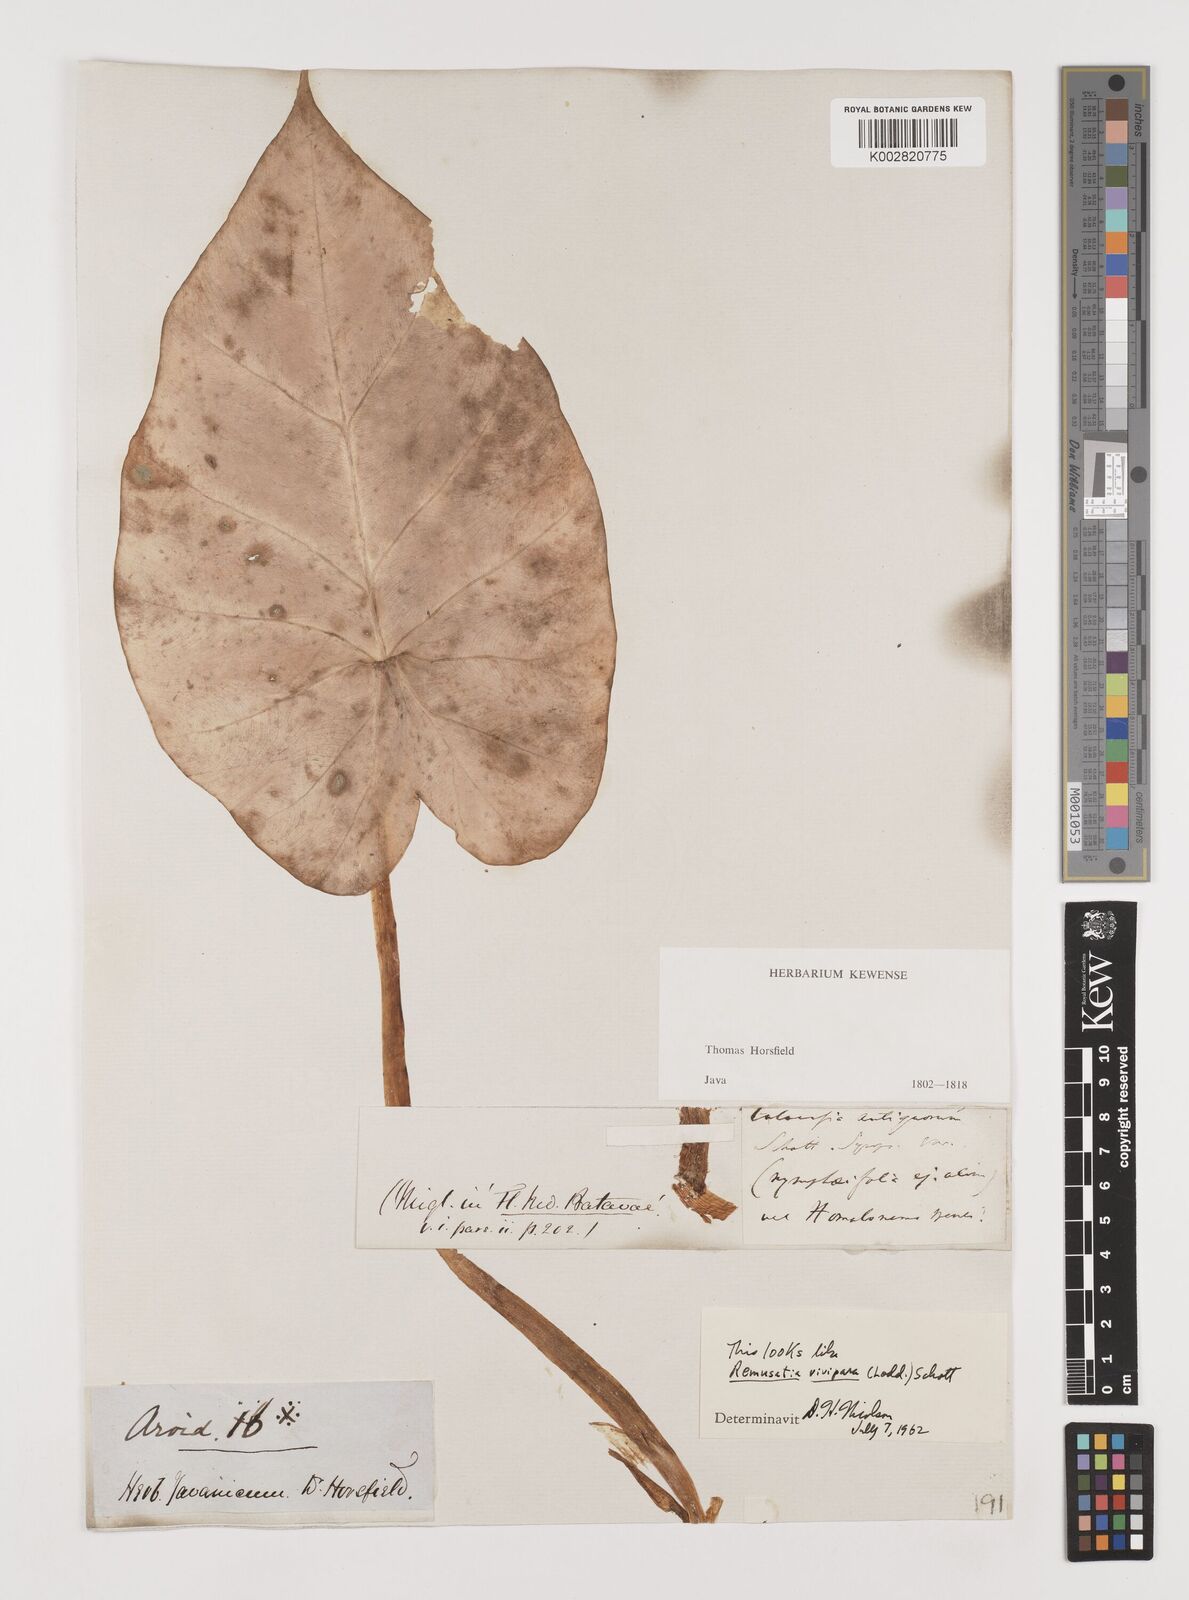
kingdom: Plantae
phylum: Tracheophyta
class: Liliopsida
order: Alismatales
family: Araceae
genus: Remusatia
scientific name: Remusatia vivipara
